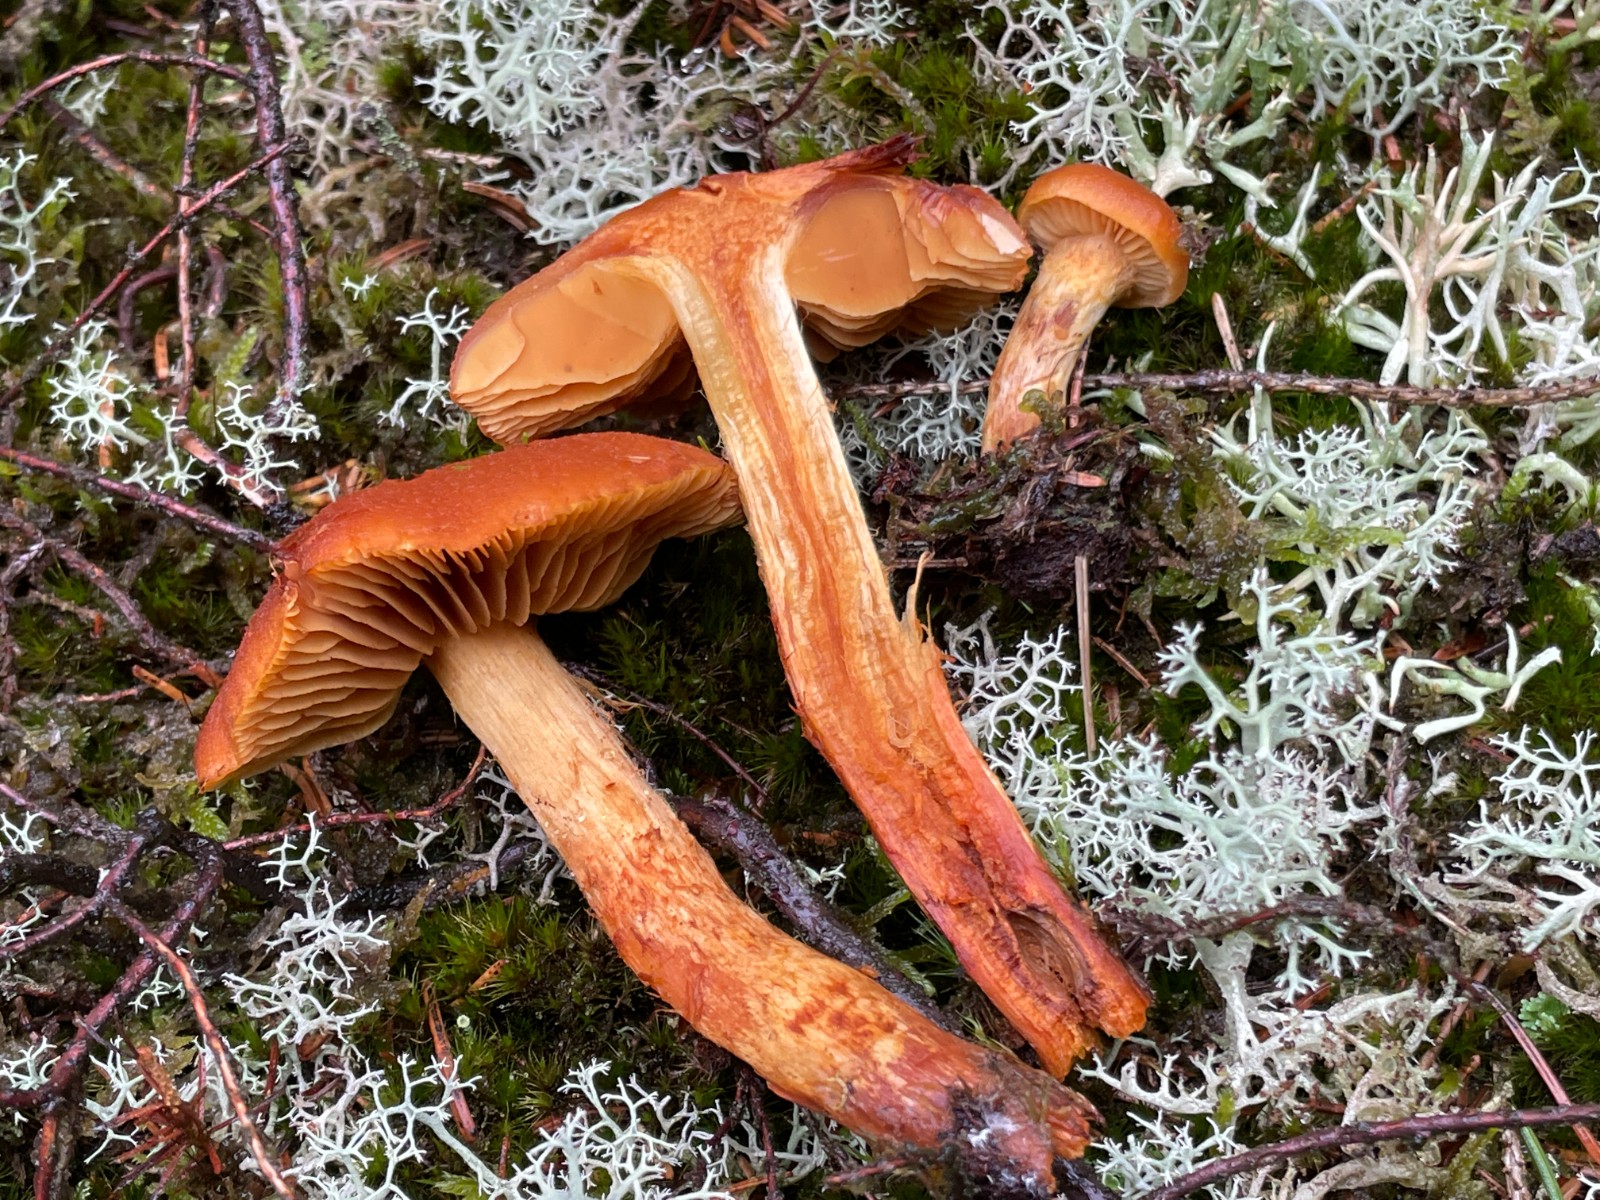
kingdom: Fungi
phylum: Basidiomycota
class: Agaricomycetes
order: Agaricales
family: Cortinariaceae
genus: Aureonarius
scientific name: Aureonarius limonius
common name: orangegul slørhat
